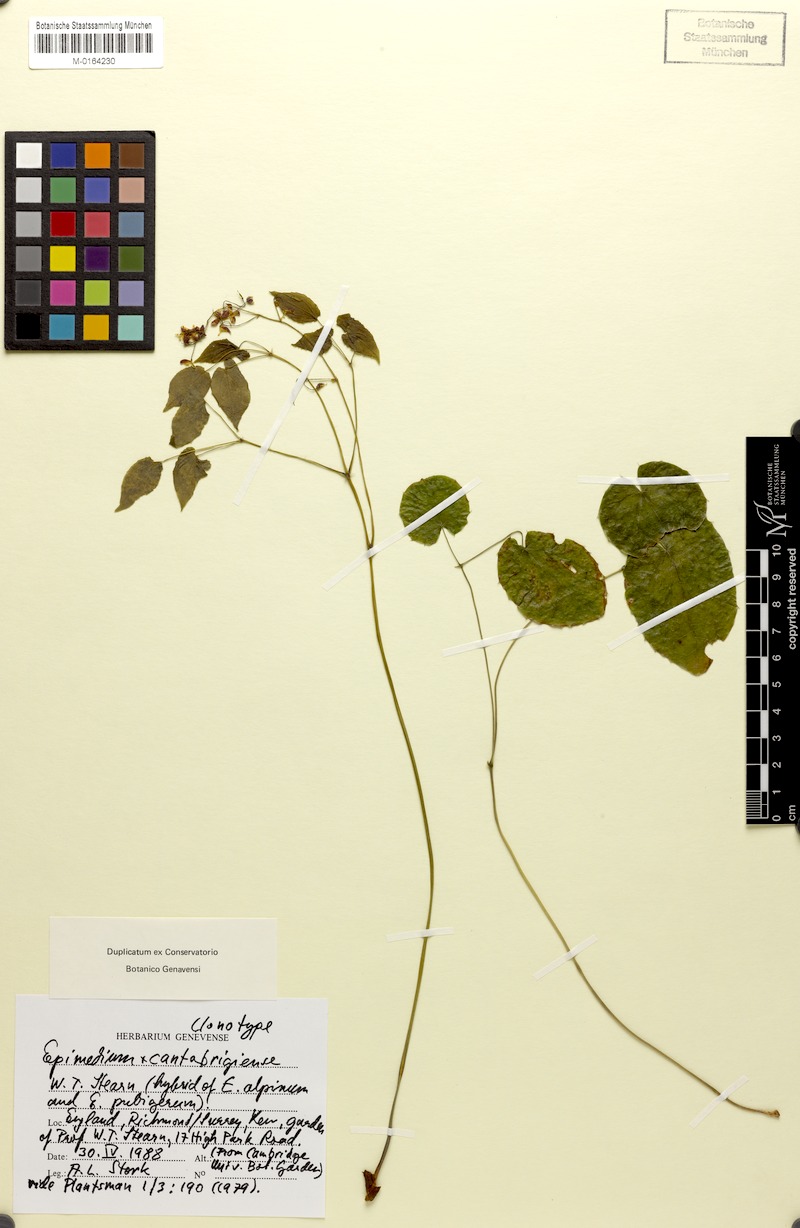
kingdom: Plantae
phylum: Tracheophyta
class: Magnoliopsida
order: Ranunculales
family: Berberidaceae
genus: Epimedium
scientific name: Epimedium pubigerum
